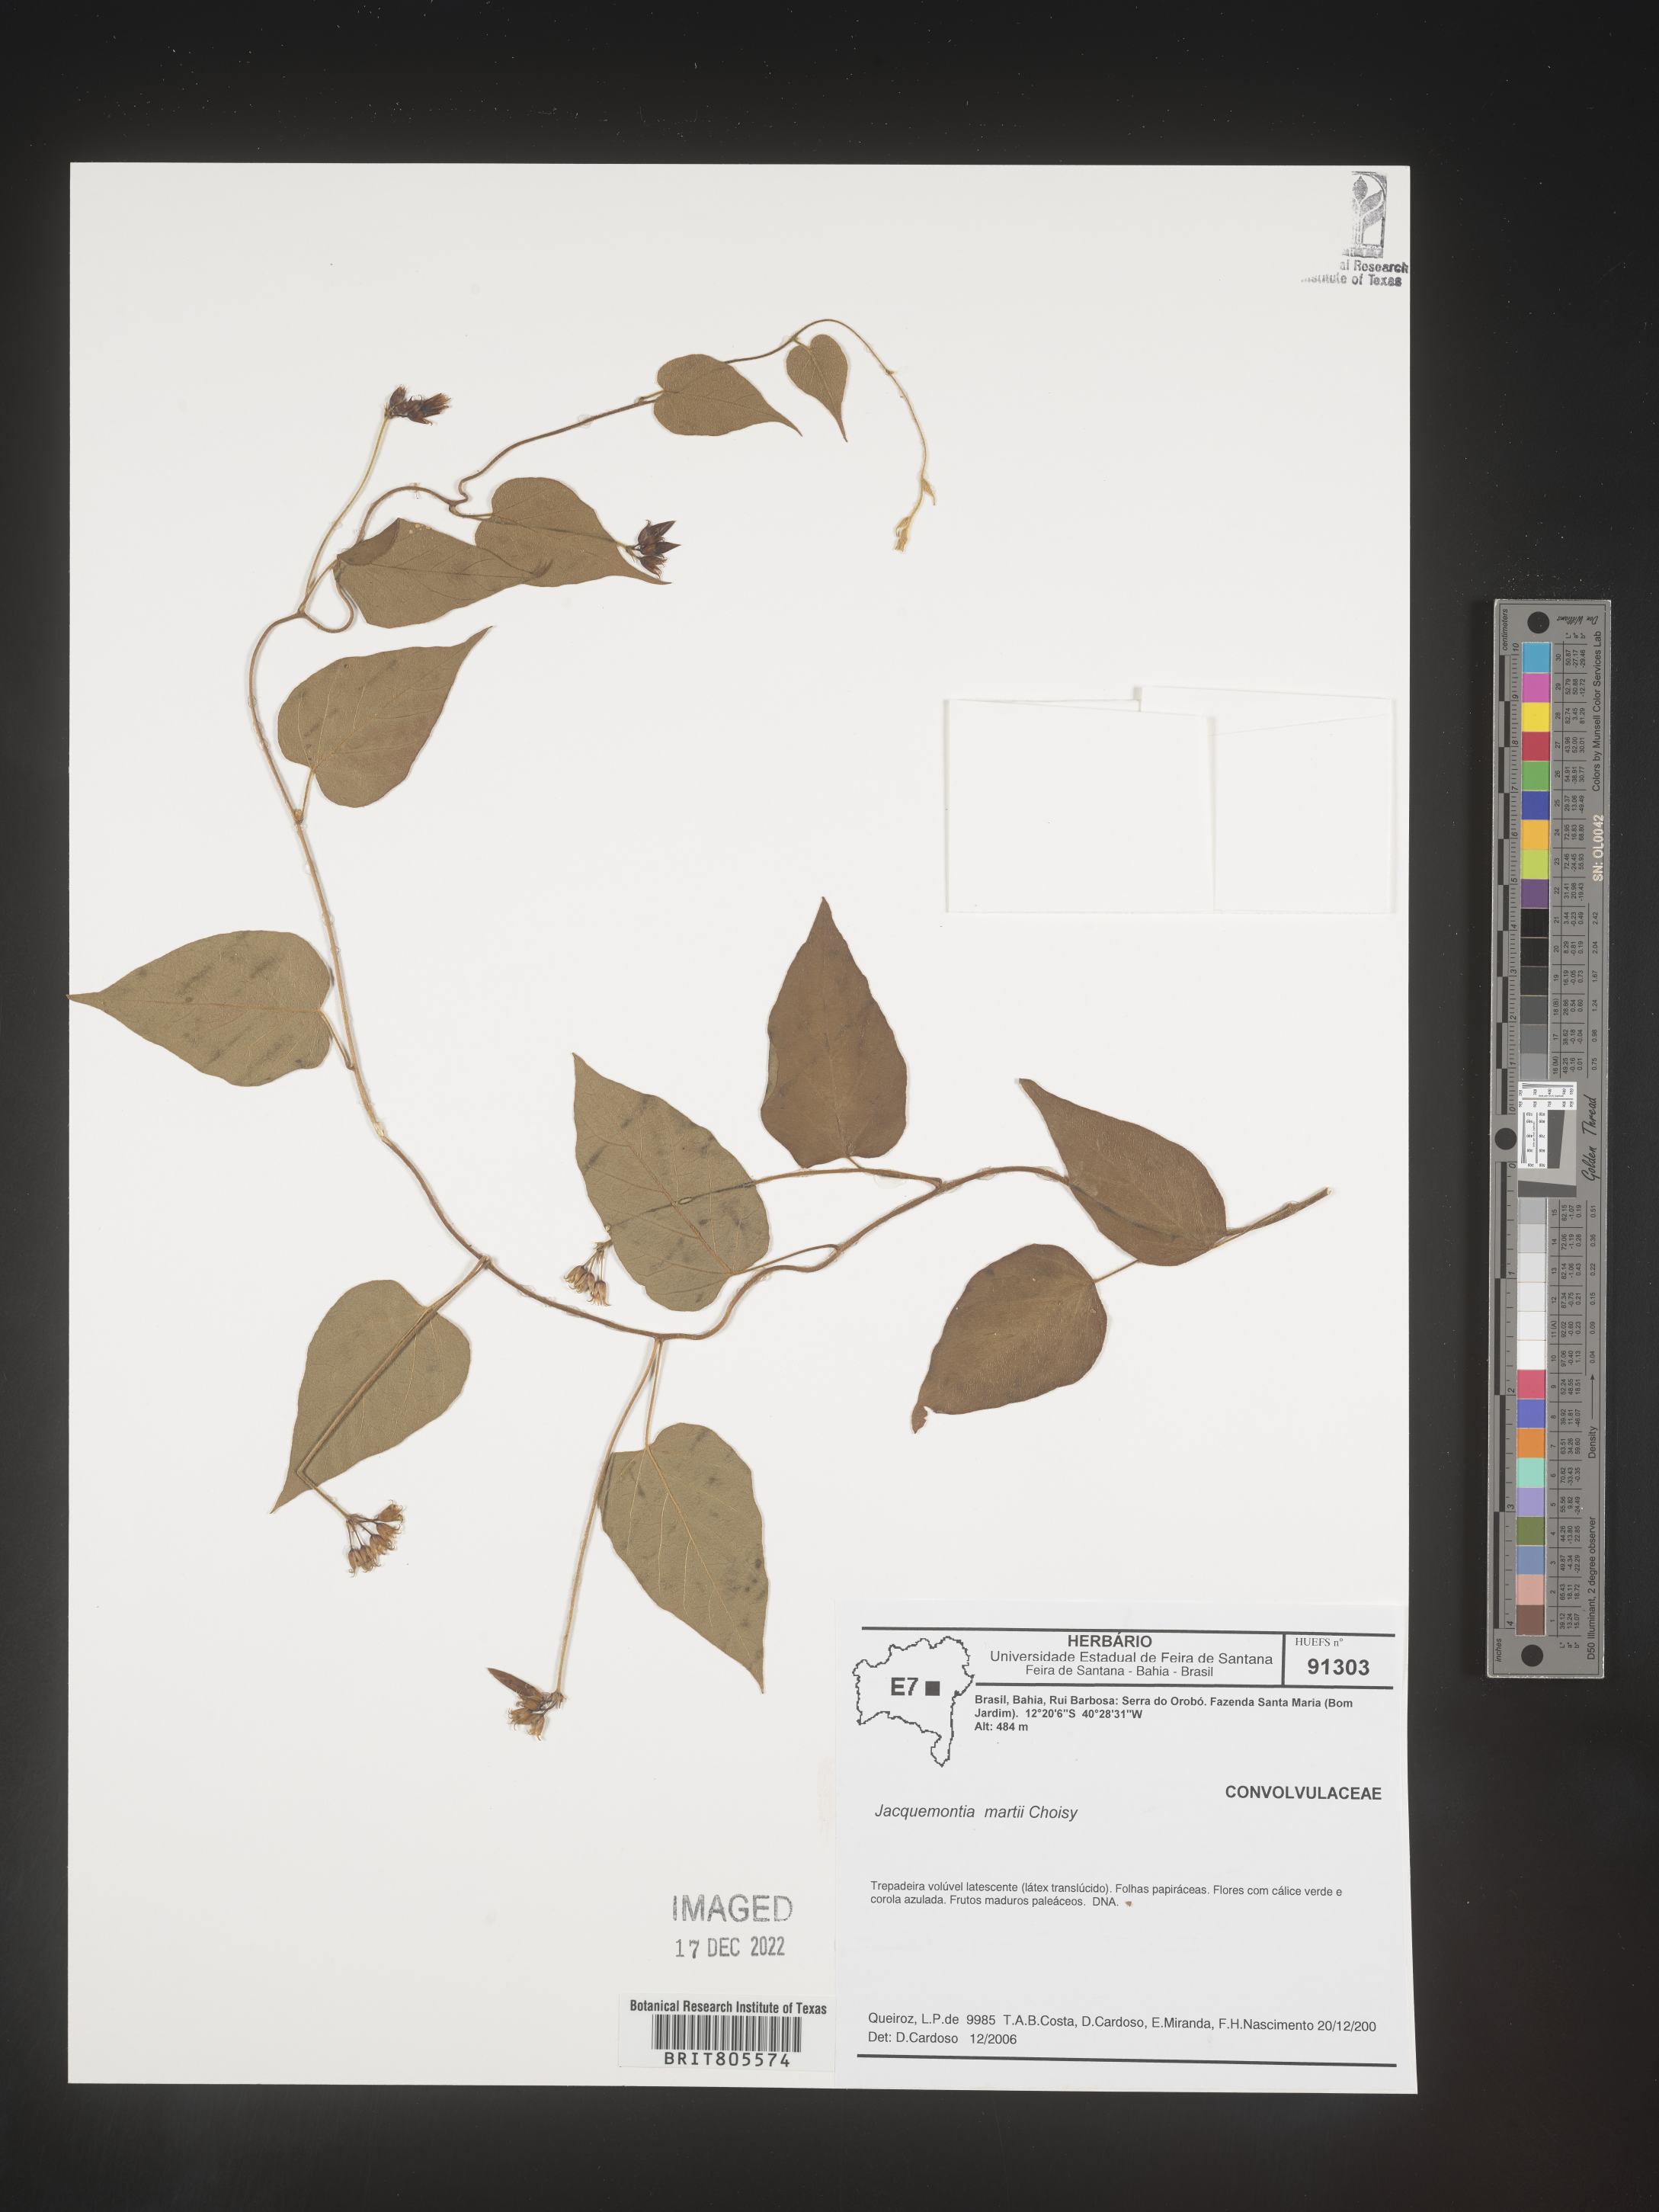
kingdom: Plantae
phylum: Tracheophyta
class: Magnoliopsida
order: Solanales
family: Convolvulaceae
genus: Jacquemontia
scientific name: Jacquemontia
